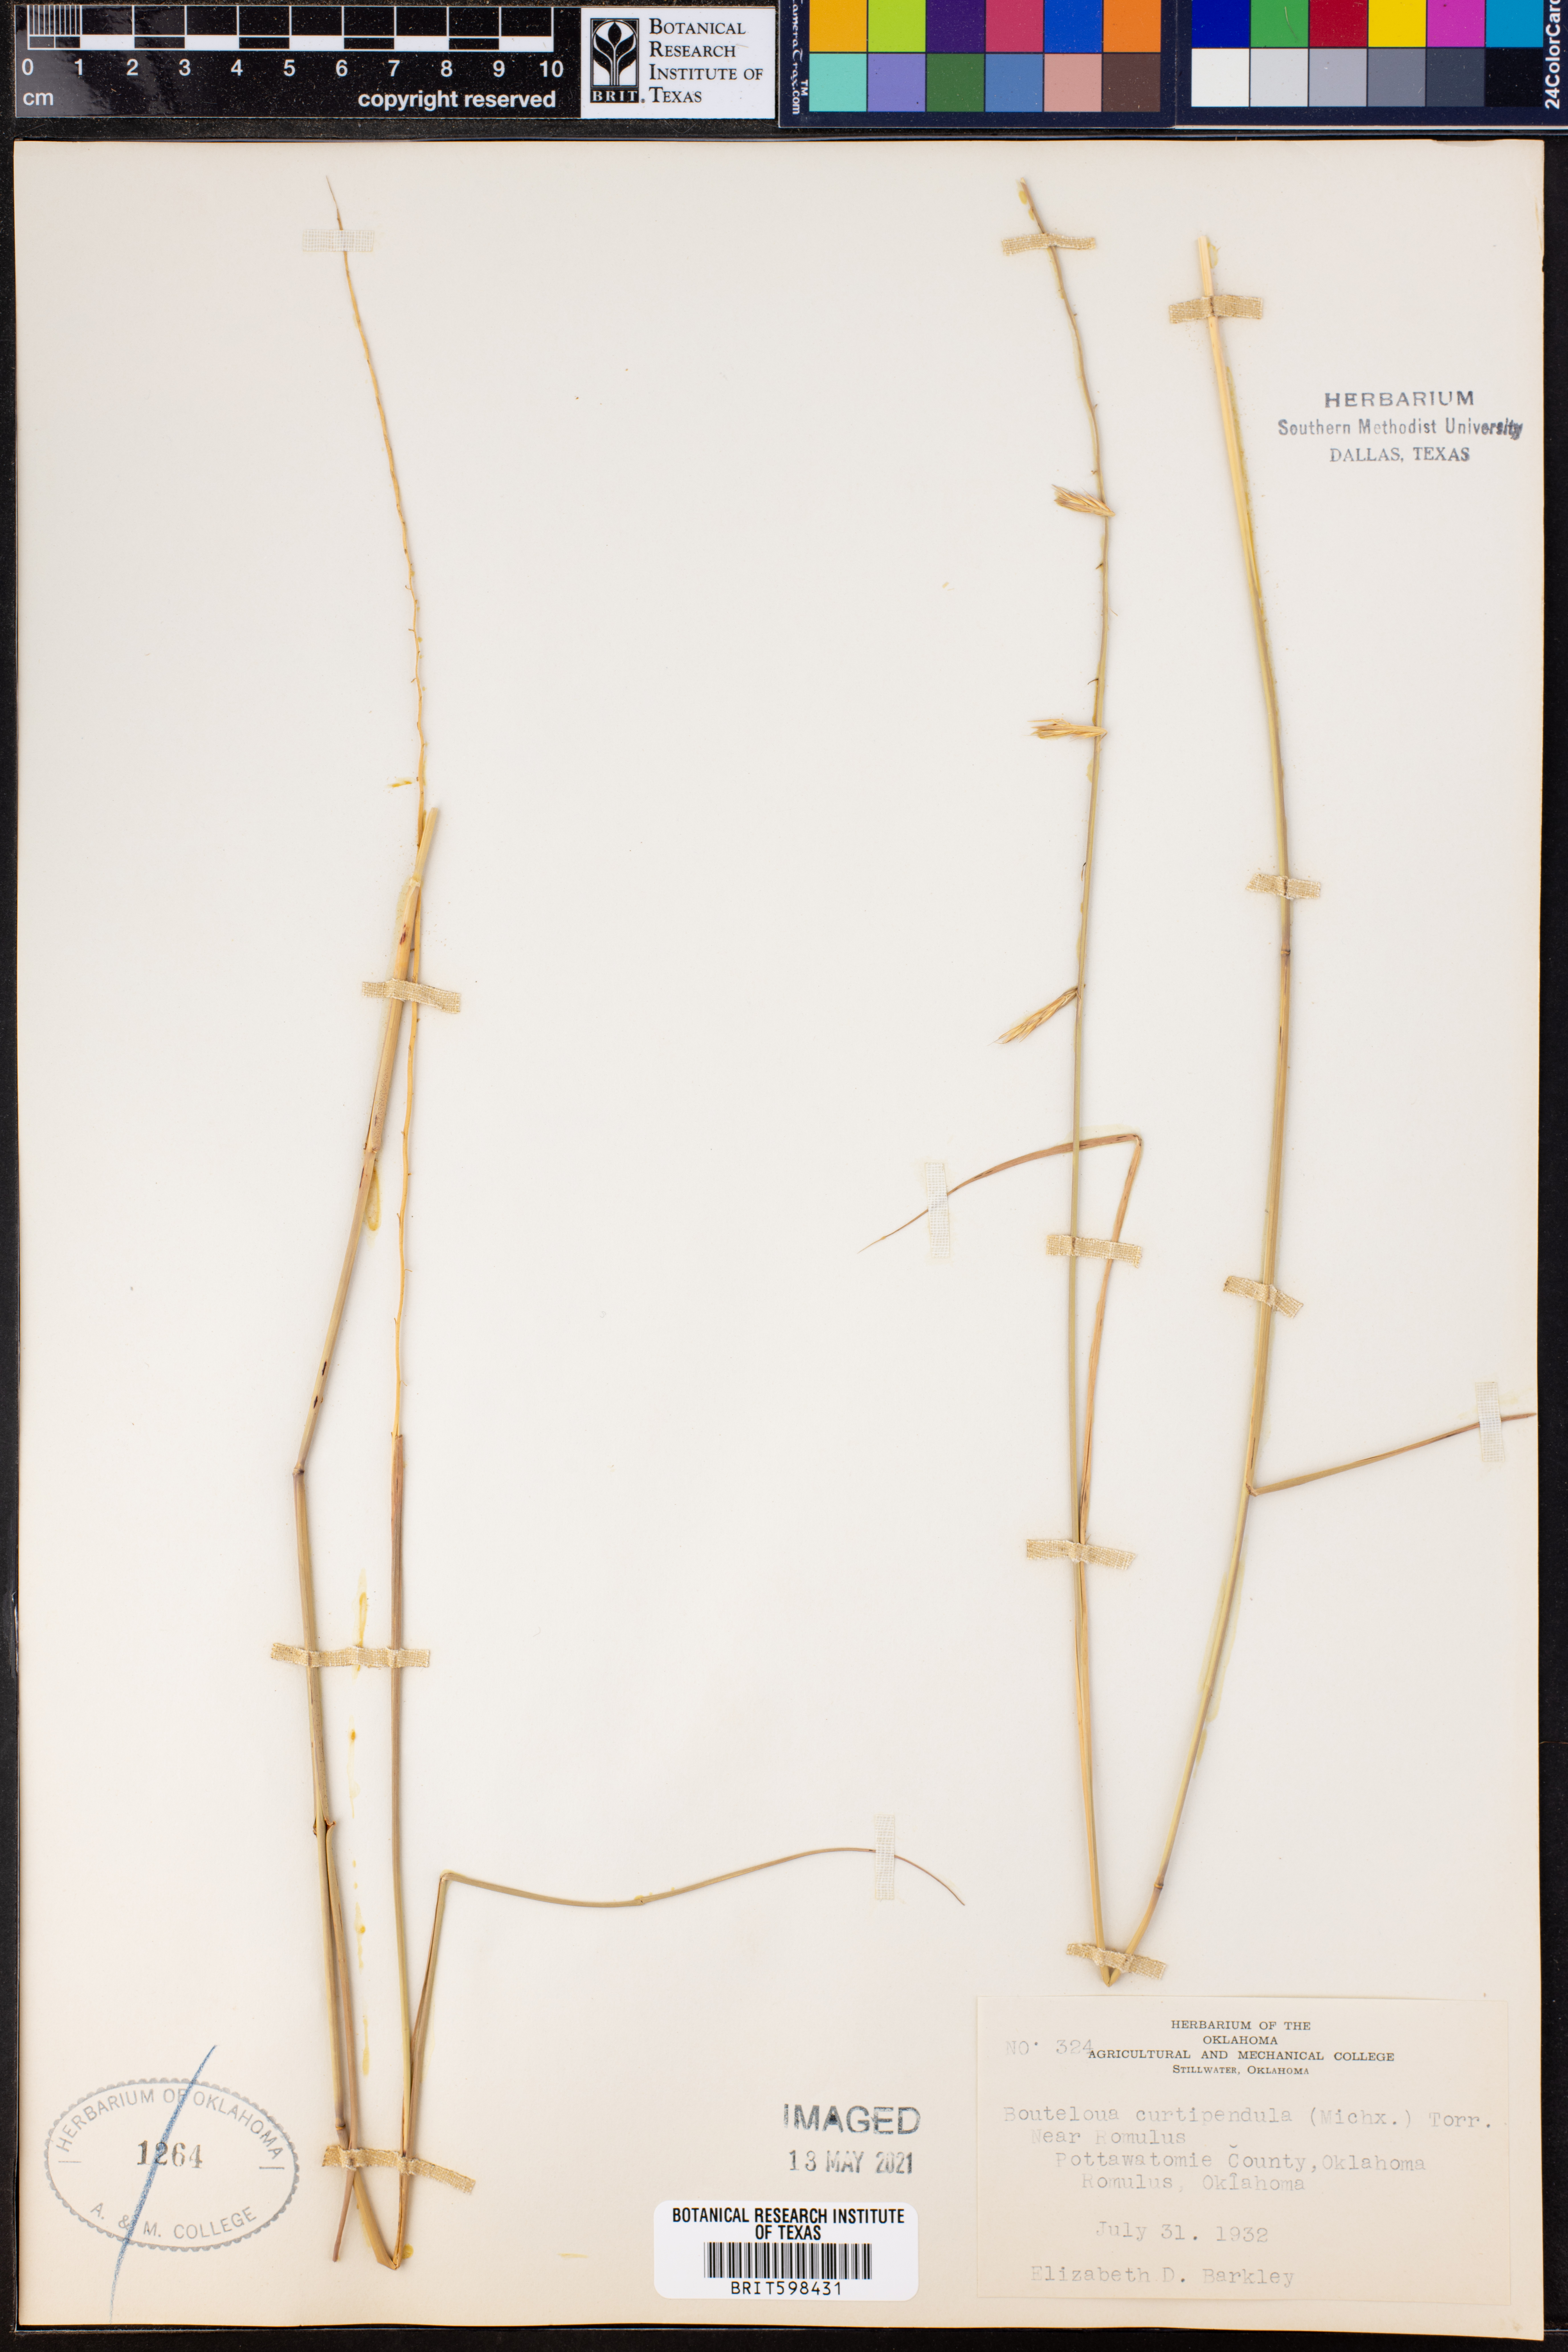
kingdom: Plantae
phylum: Tracheophyta
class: Liliopsida
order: Poales
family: Poaceae
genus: Bouteloua
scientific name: Bouteloua curtipendula
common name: Side-oats grama
